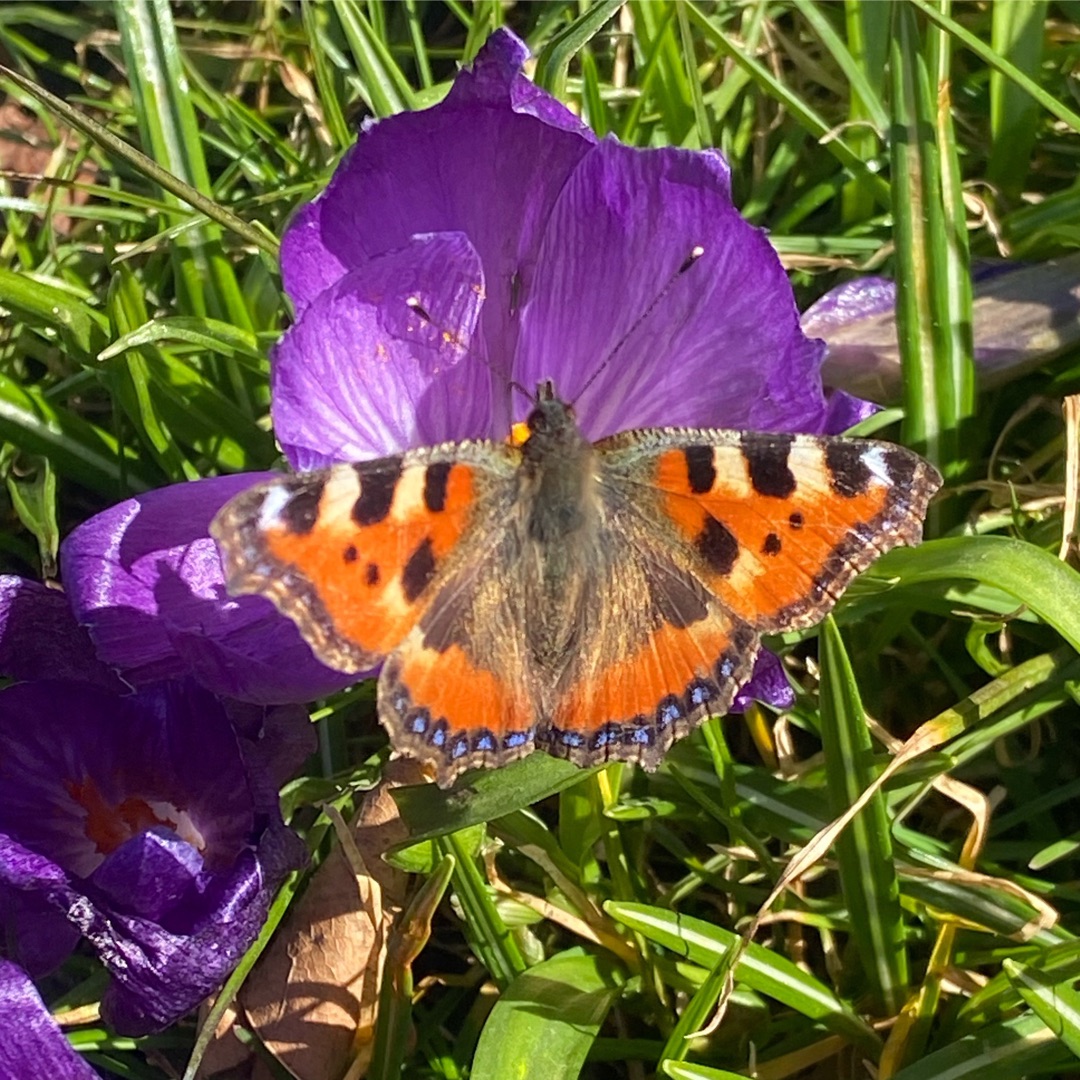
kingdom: Animalia
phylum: Arthropoda
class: Insecta
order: Lepidoptera
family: Nymphalidae
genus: Aglais
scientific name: Aglais urticae
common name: Nældens takvinge
